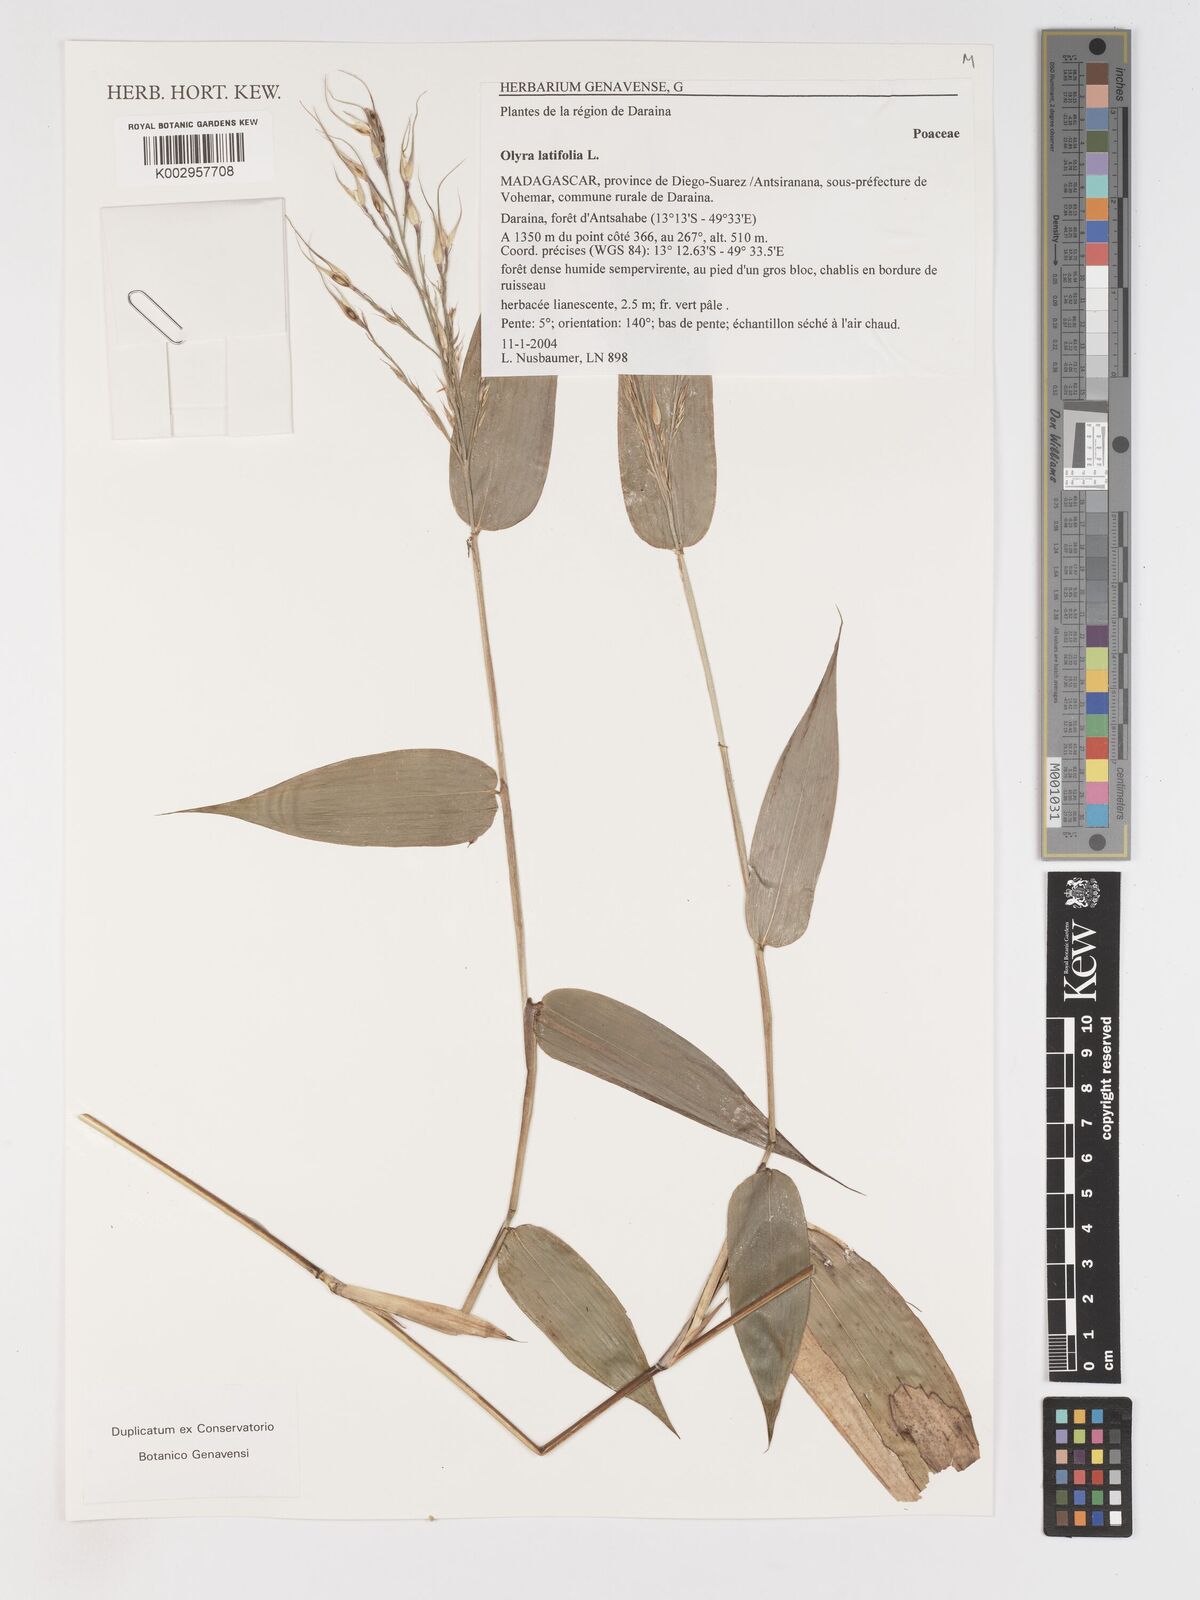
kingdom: Plantae
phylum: Tracheophyta
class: Liliopsida
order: Poales
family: Poaceae
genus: Olyra
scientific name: Olyra latifolia
